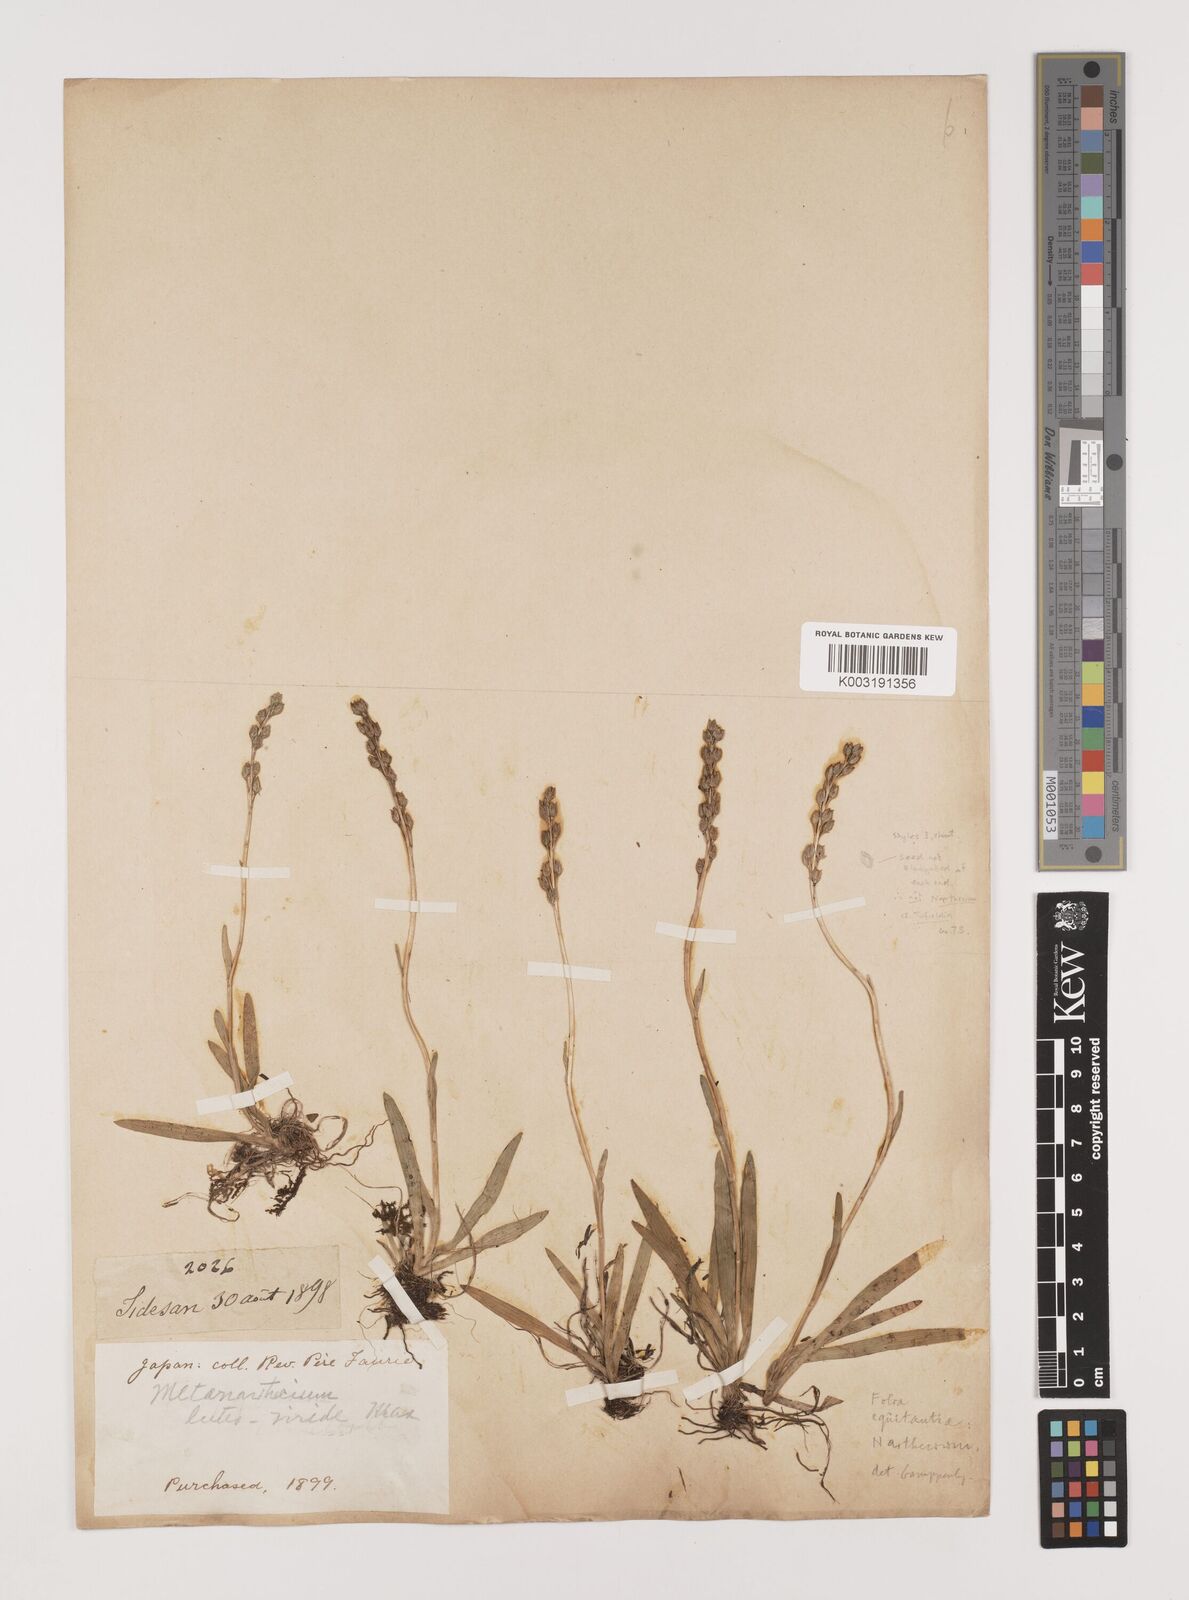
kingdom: Plantae
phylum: Tracheophyta
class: Liliopsida
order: Alismatales
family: Tofieldiaceae
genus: Tofieldia
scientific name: Tofieldia
